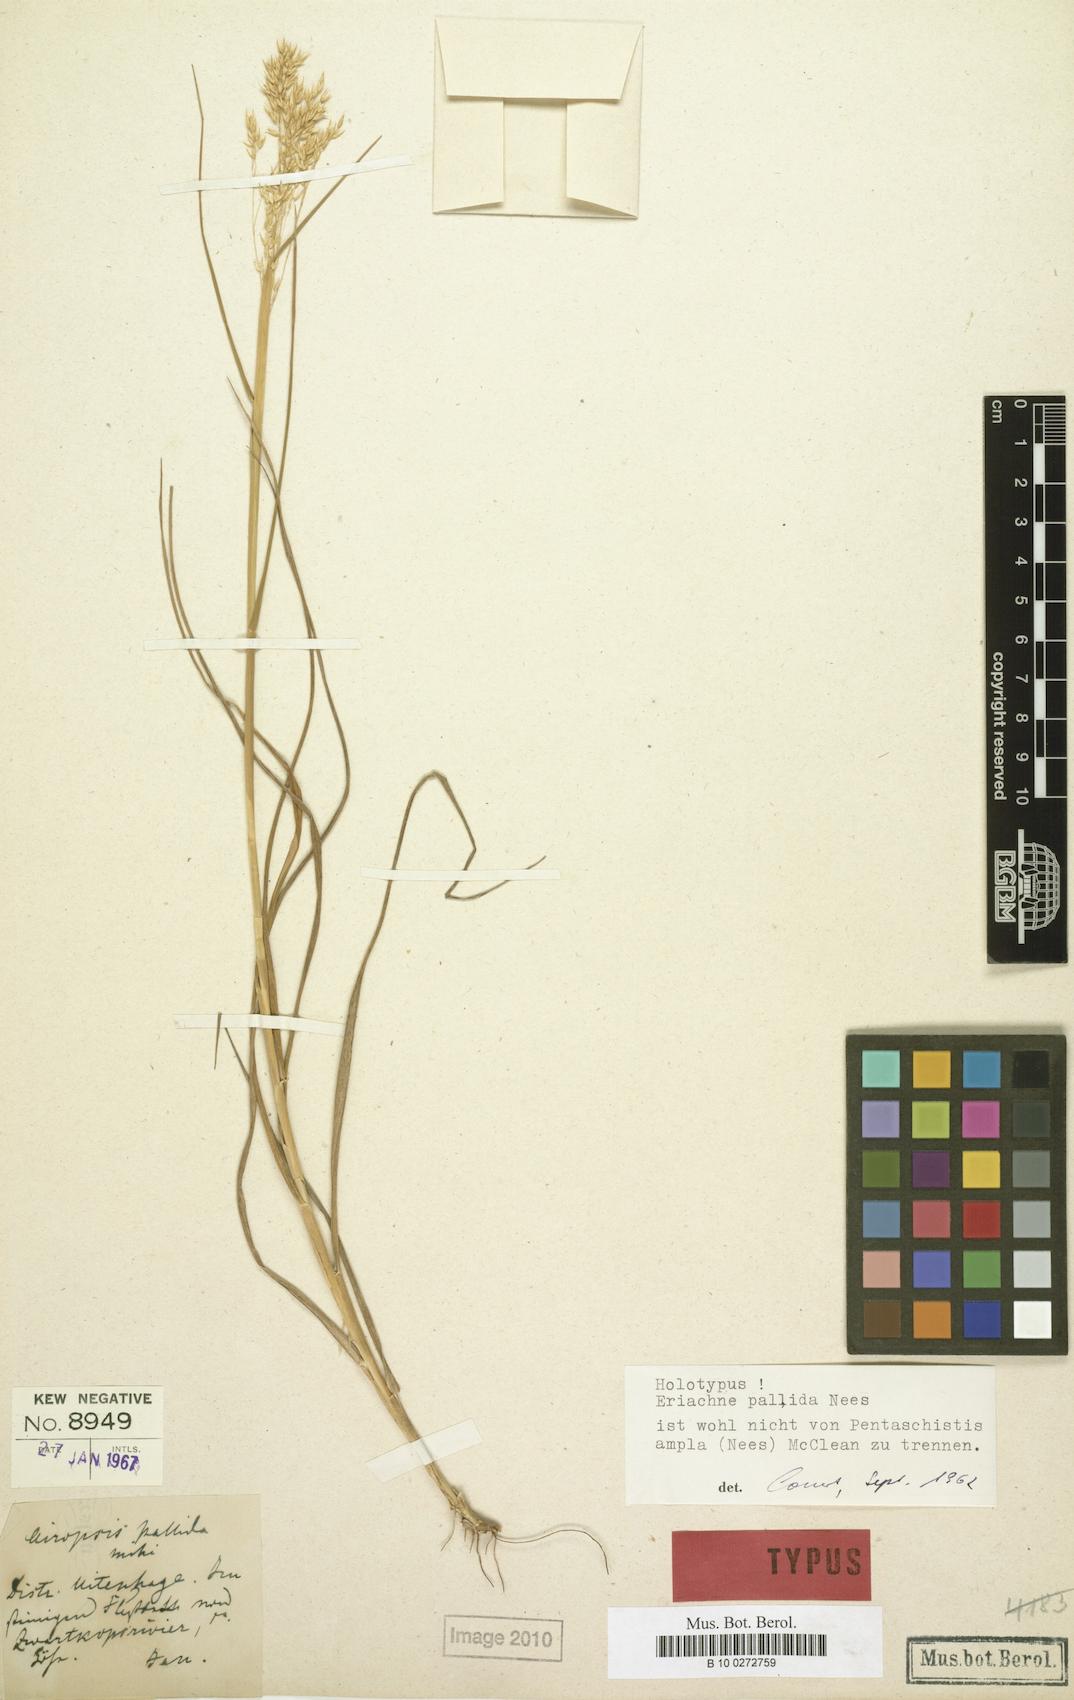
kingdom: Plantae
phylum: Tracheophyta
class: Liliopsida
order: Poales
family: Poaceae
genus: Pentameris
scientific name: Pentameris ampla
